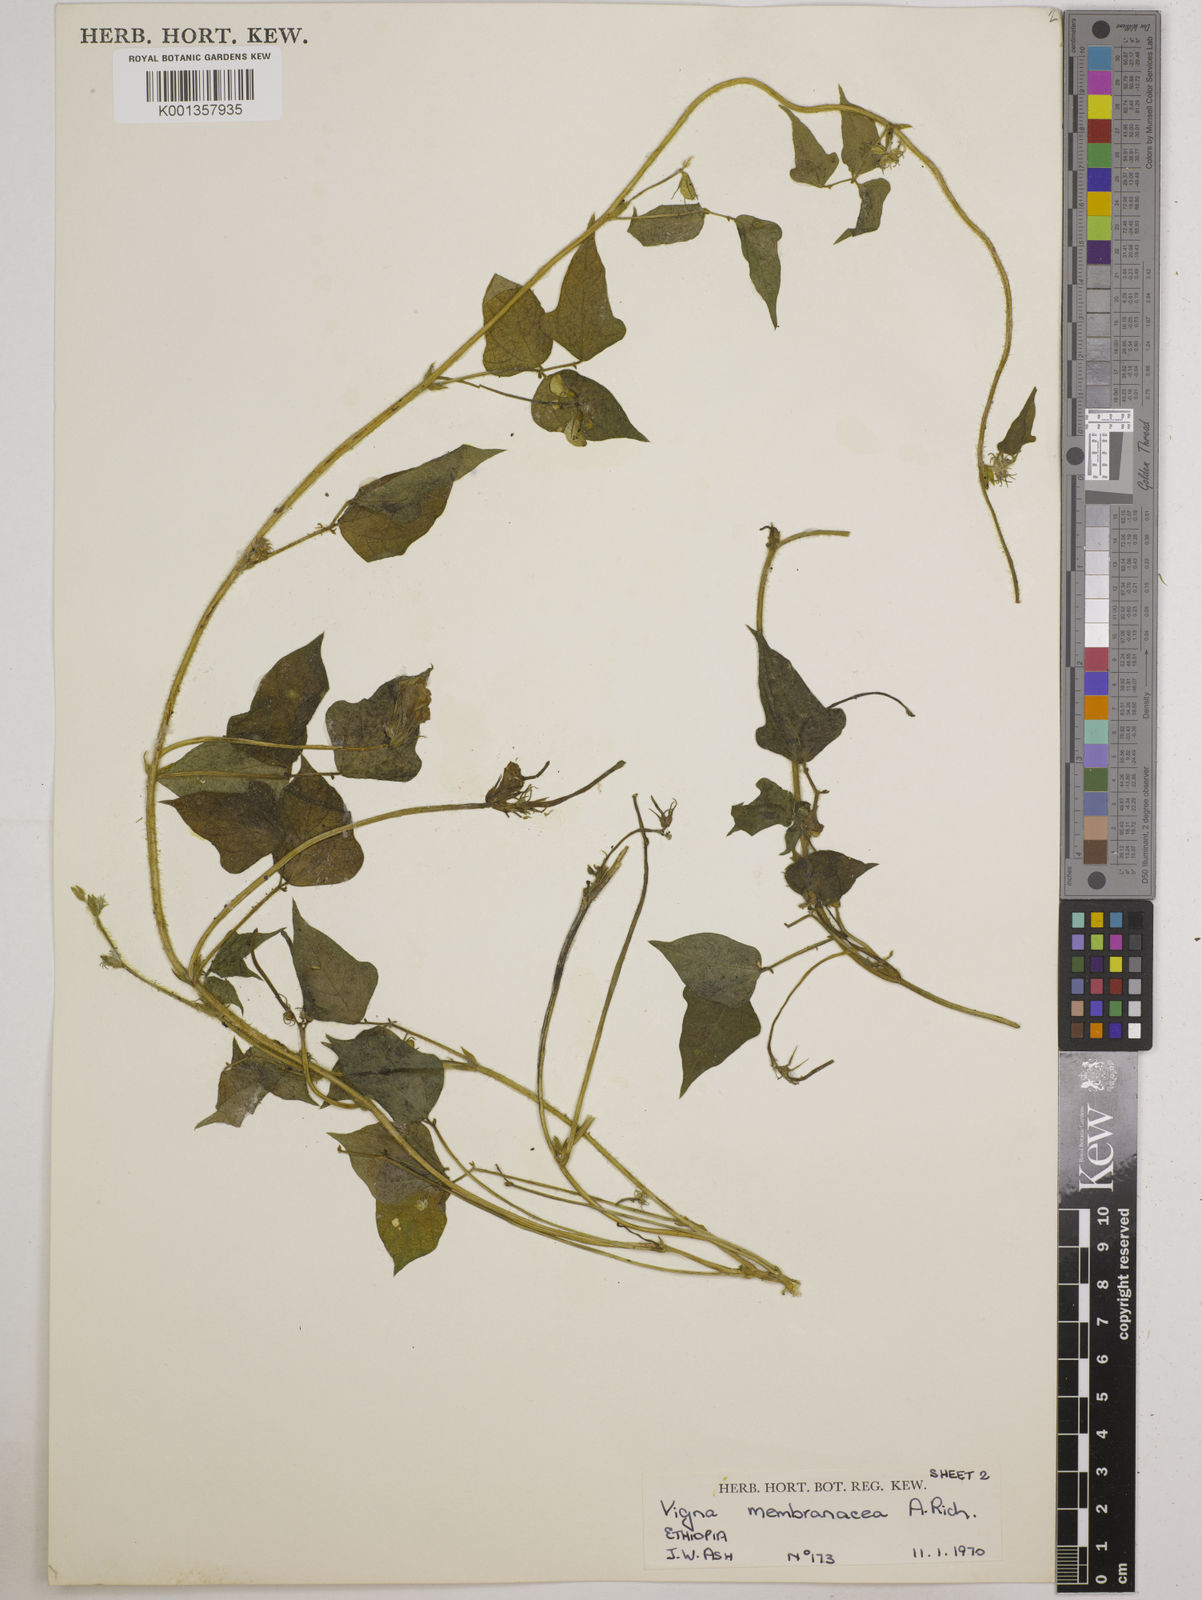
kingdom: Plantae
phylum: Tracheophyta
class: Magnoliopsida
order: Fabales
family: Fabaceae
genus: Vigna
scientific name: Vigna membranacea
